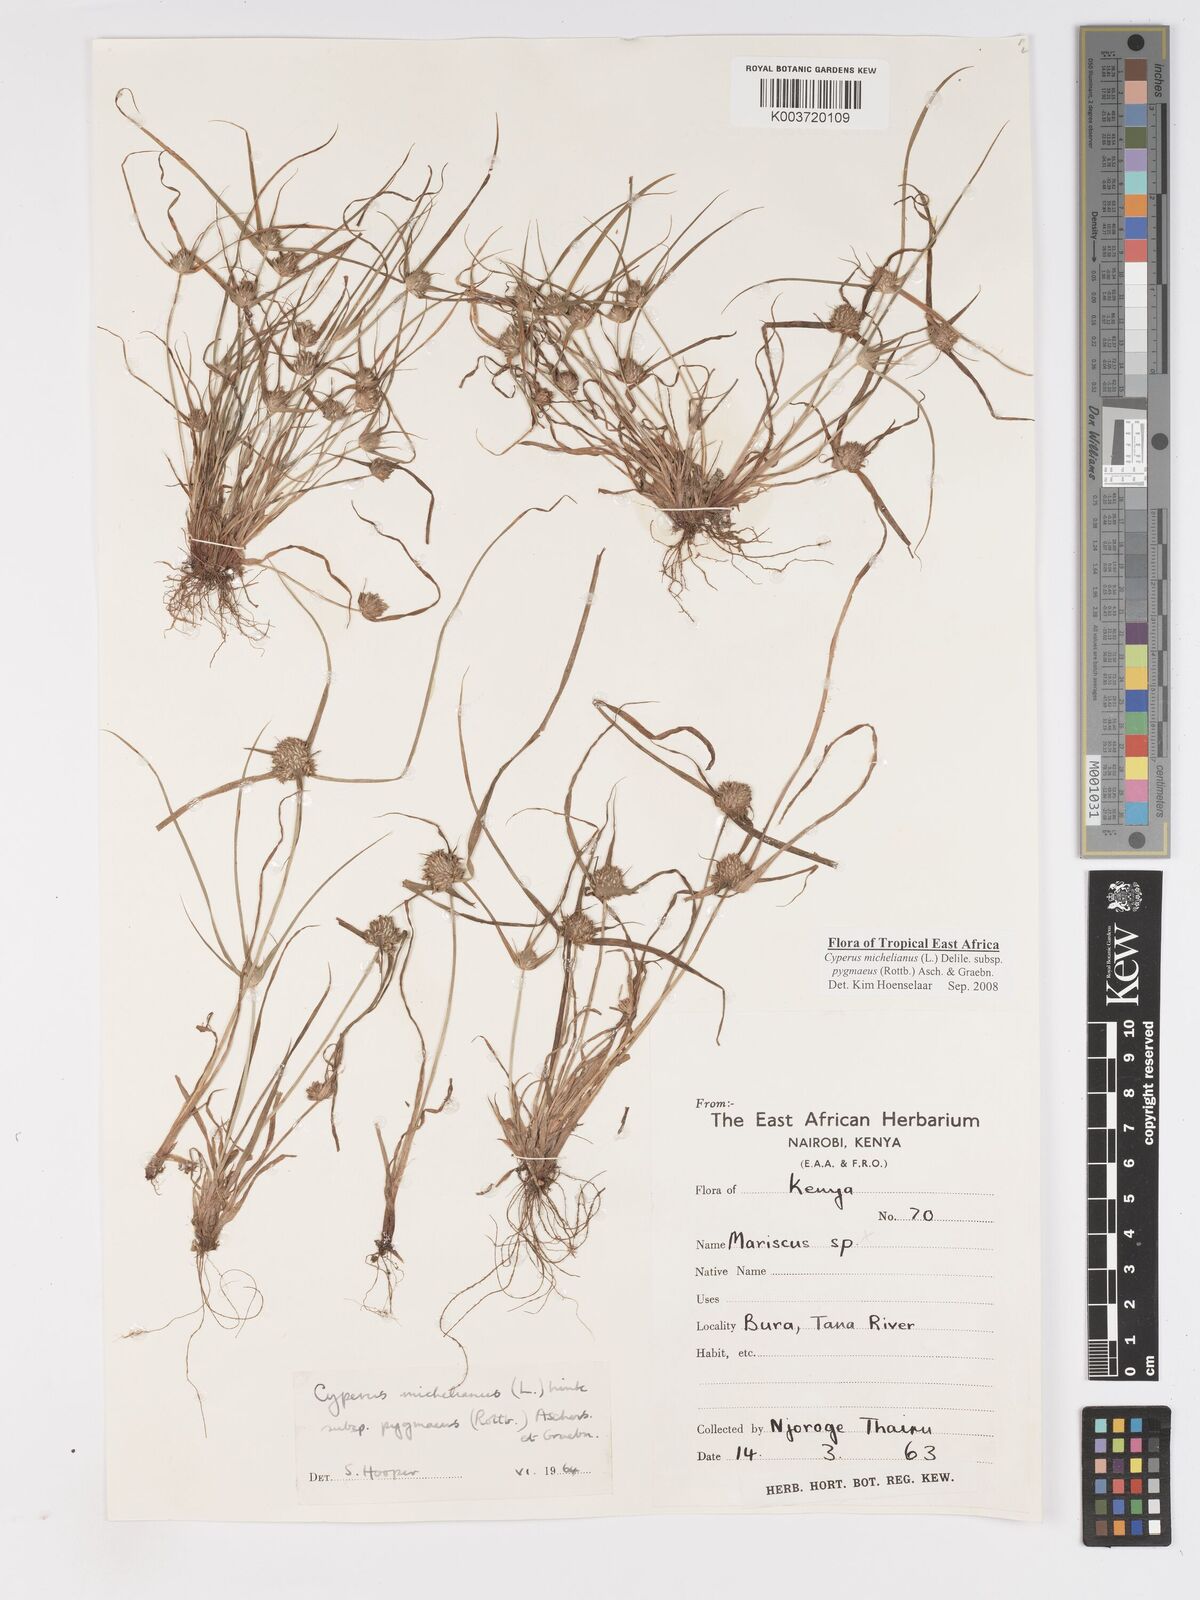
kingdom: Plantae
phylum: Tracheophyta
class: Liliopsida
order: Poales
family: Cyperaceae
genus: Cyperus
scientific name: Cyperus michelianus
